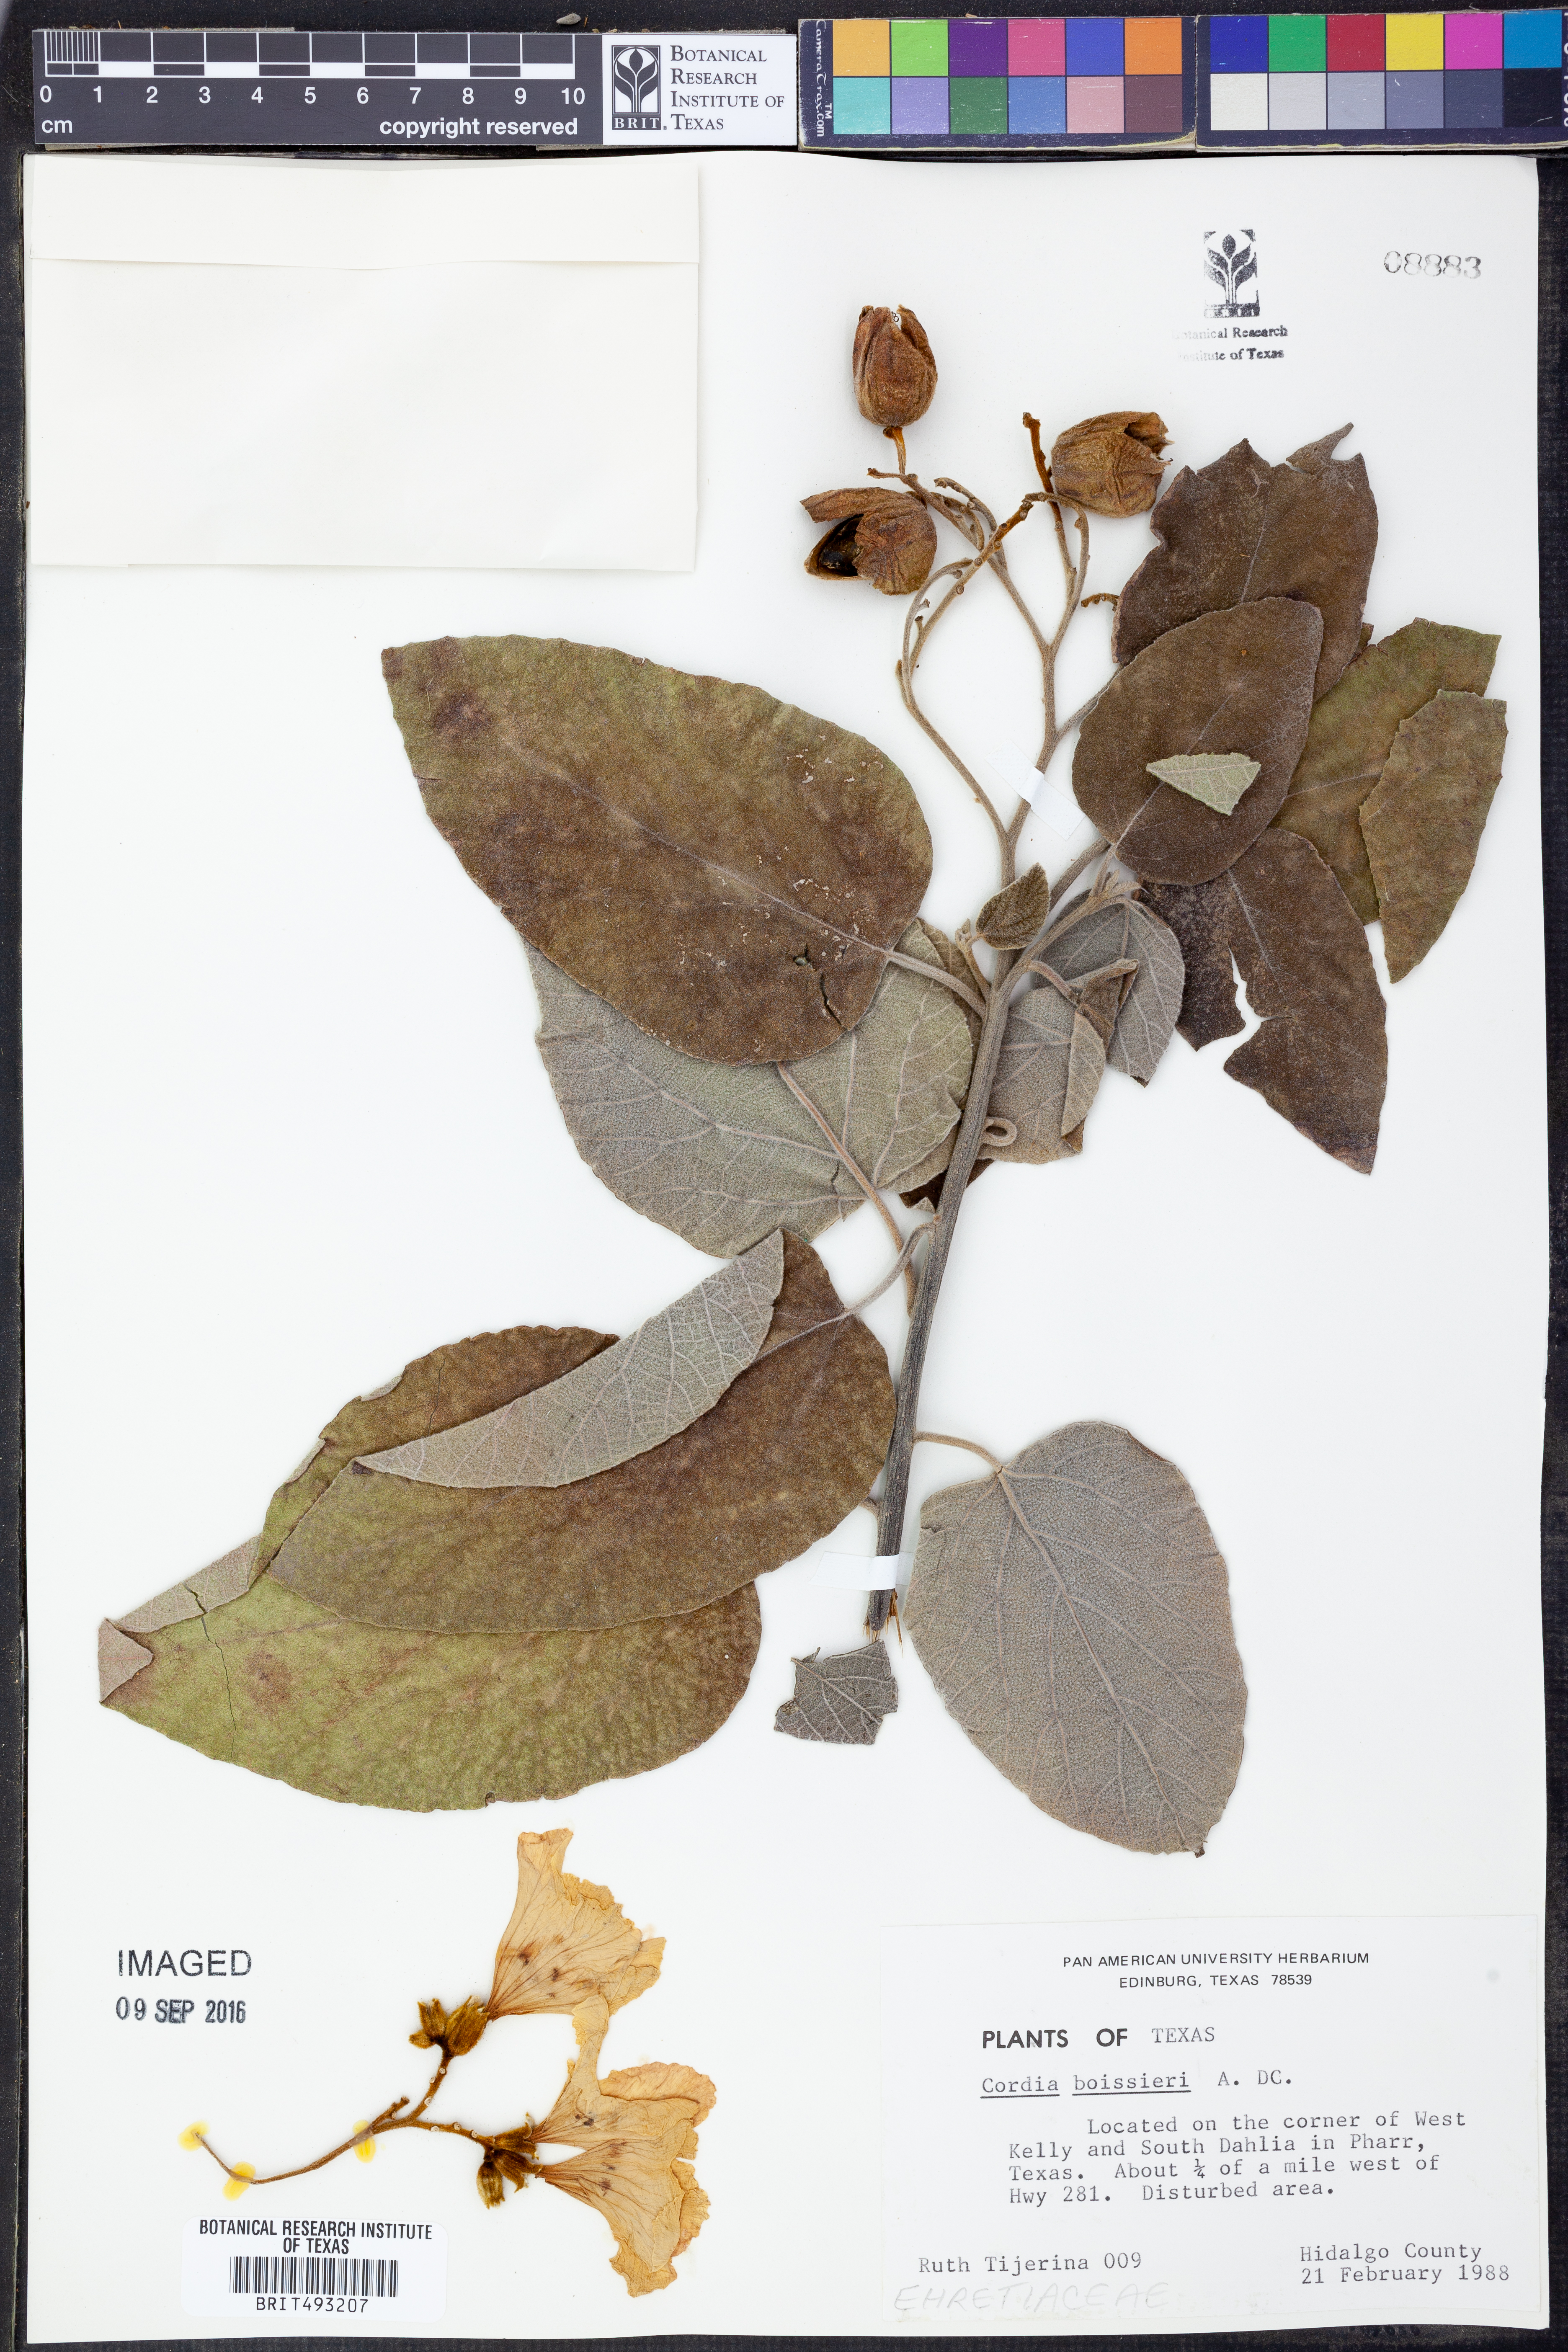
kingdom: Plantae
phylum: Tracheophyta
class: Magnoliopsida
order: Boraginales
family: Cordiaceae
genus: Cordia
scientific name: Cordia boissieri
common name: Mexican-olive
